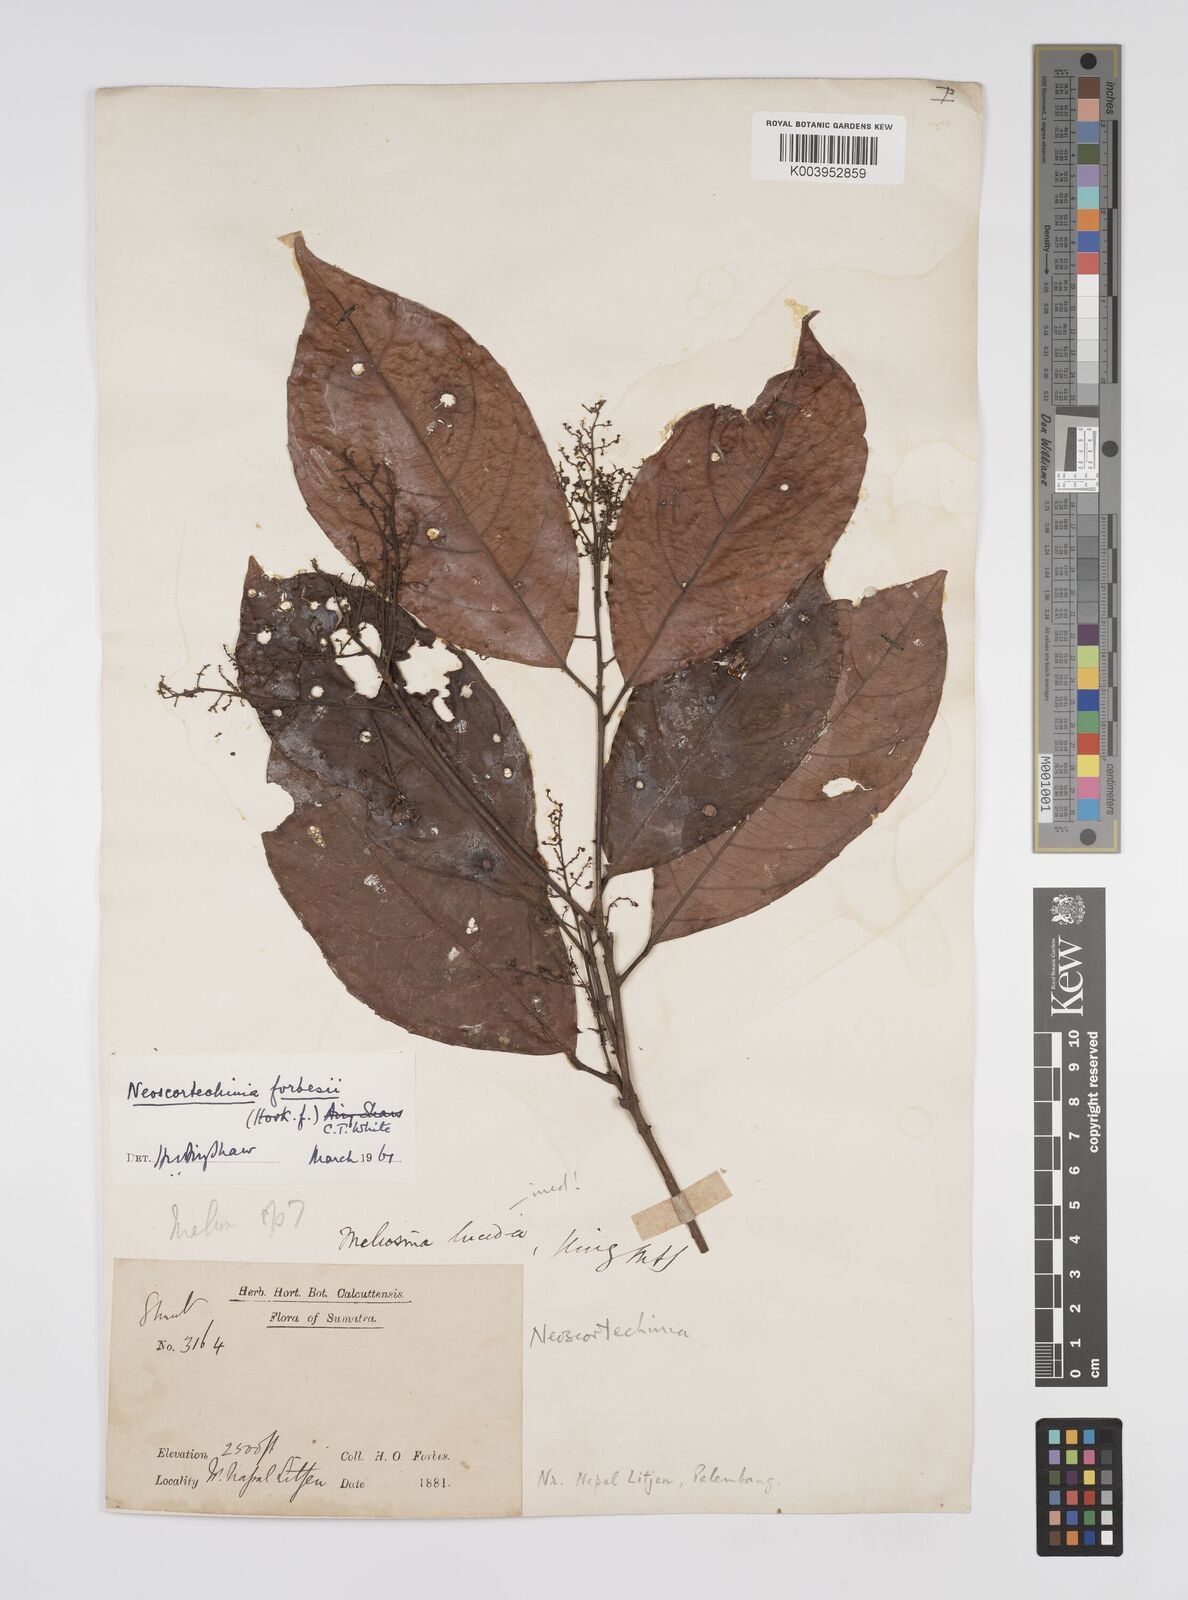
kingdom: Plantae
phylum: Tracheophyta
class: Magnoliopsida
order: Malpighiales
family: Euphorbiaceae
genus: Neoscortechinia
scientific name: Neoscortechinia philippinensis
